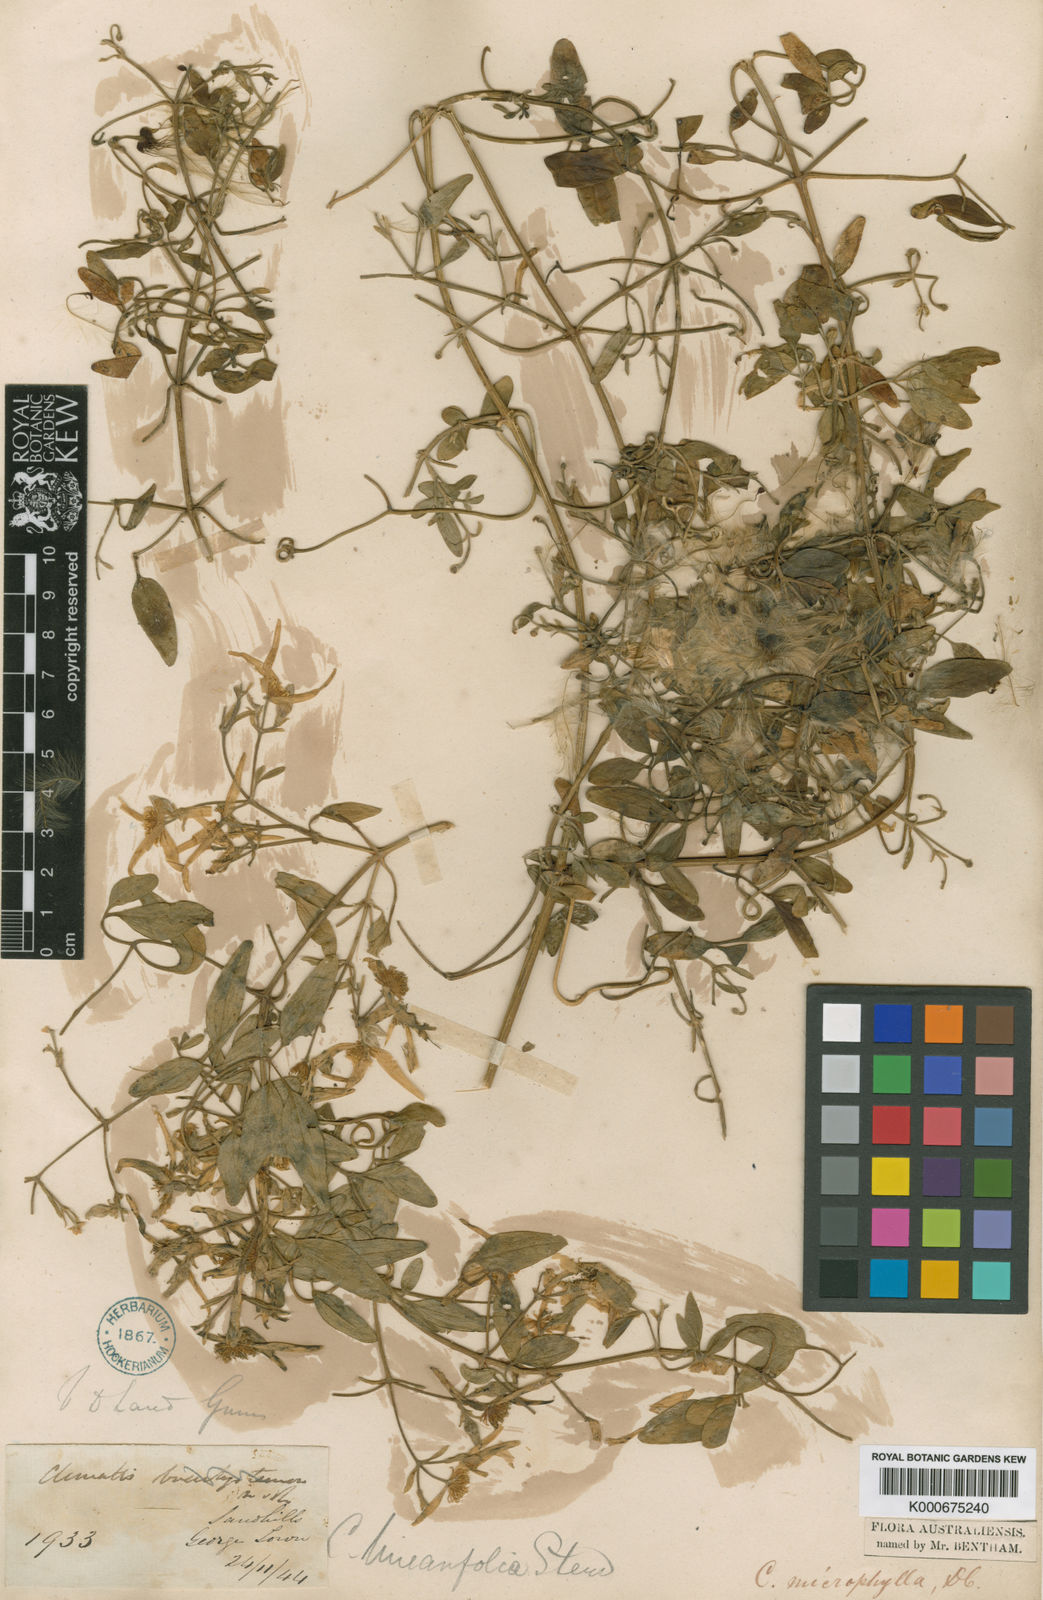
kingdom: Plantae
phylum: Tracheophyta
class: Magnoliopsida
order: Ranunculales
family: Ranunculaceae
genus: Clematis
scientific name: Clematis microphylla
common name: Headachevine
